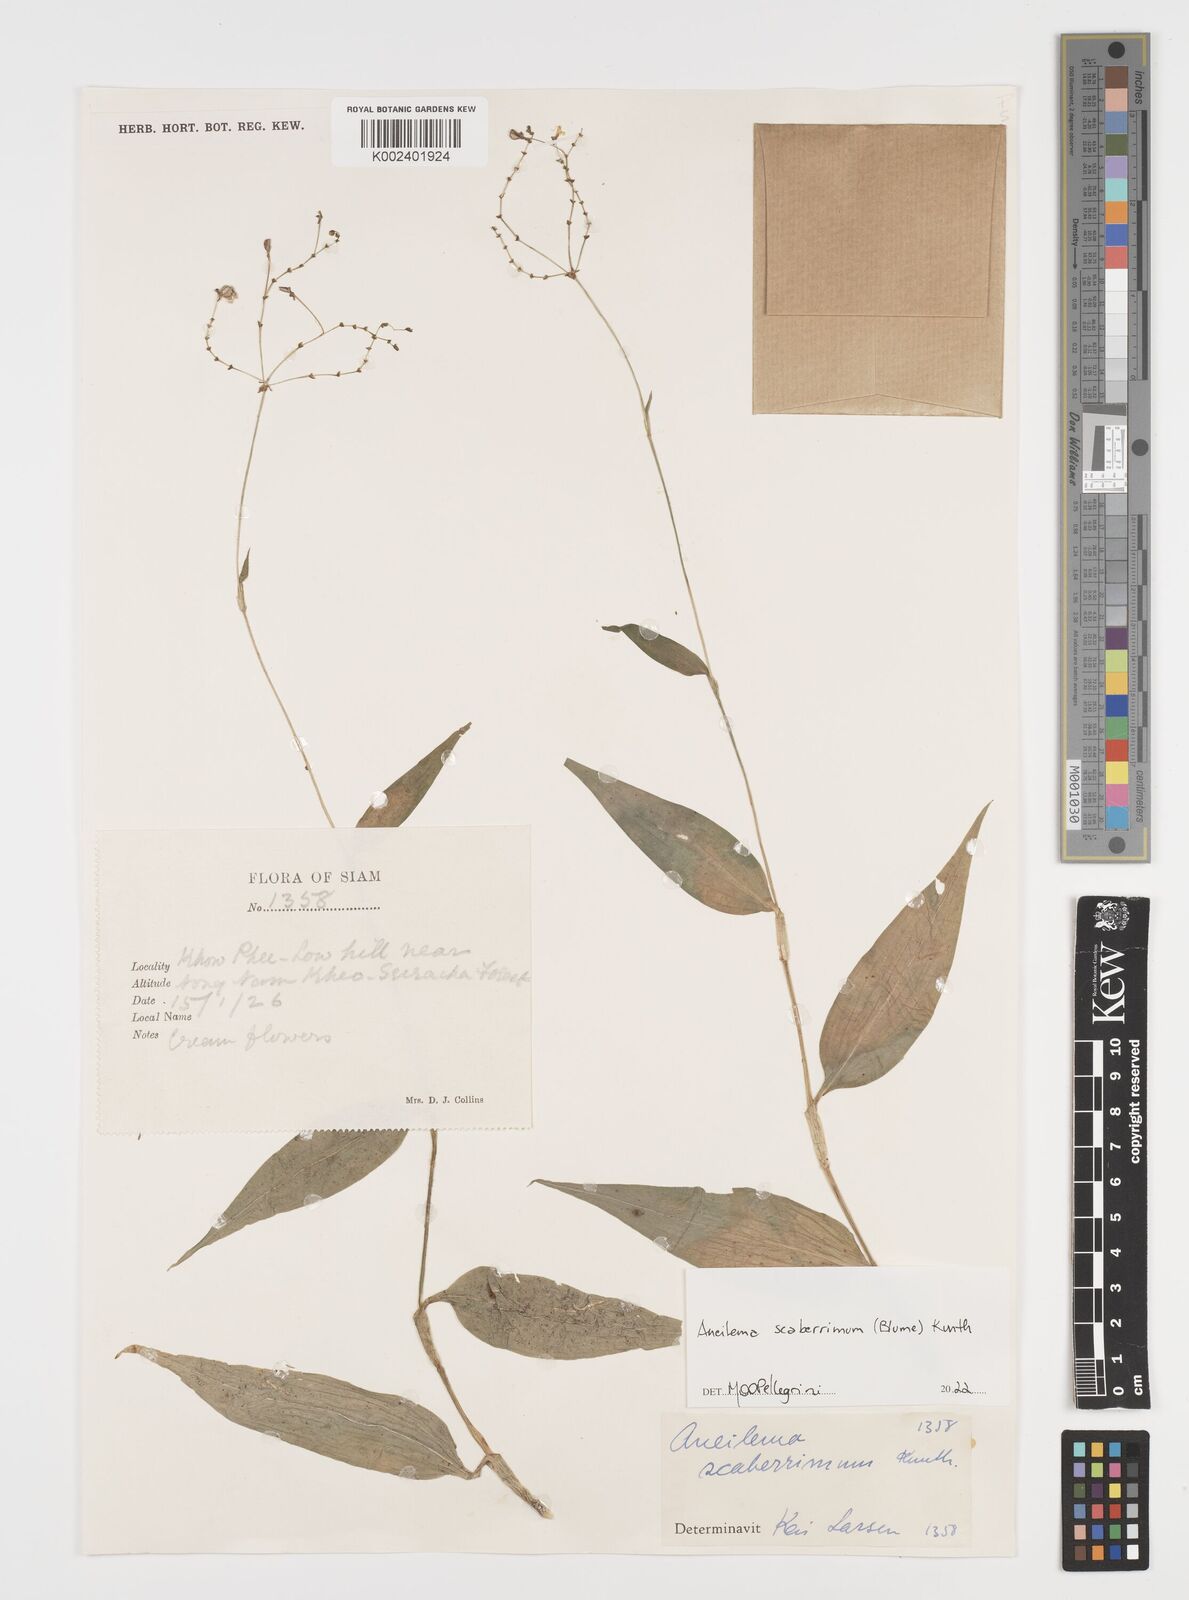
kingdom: Plantae
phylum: Tracheophyta
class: Liliopsida
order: Commelinales
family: Commelinaceae
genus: Rhopalephora
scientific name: Rhopalephora
